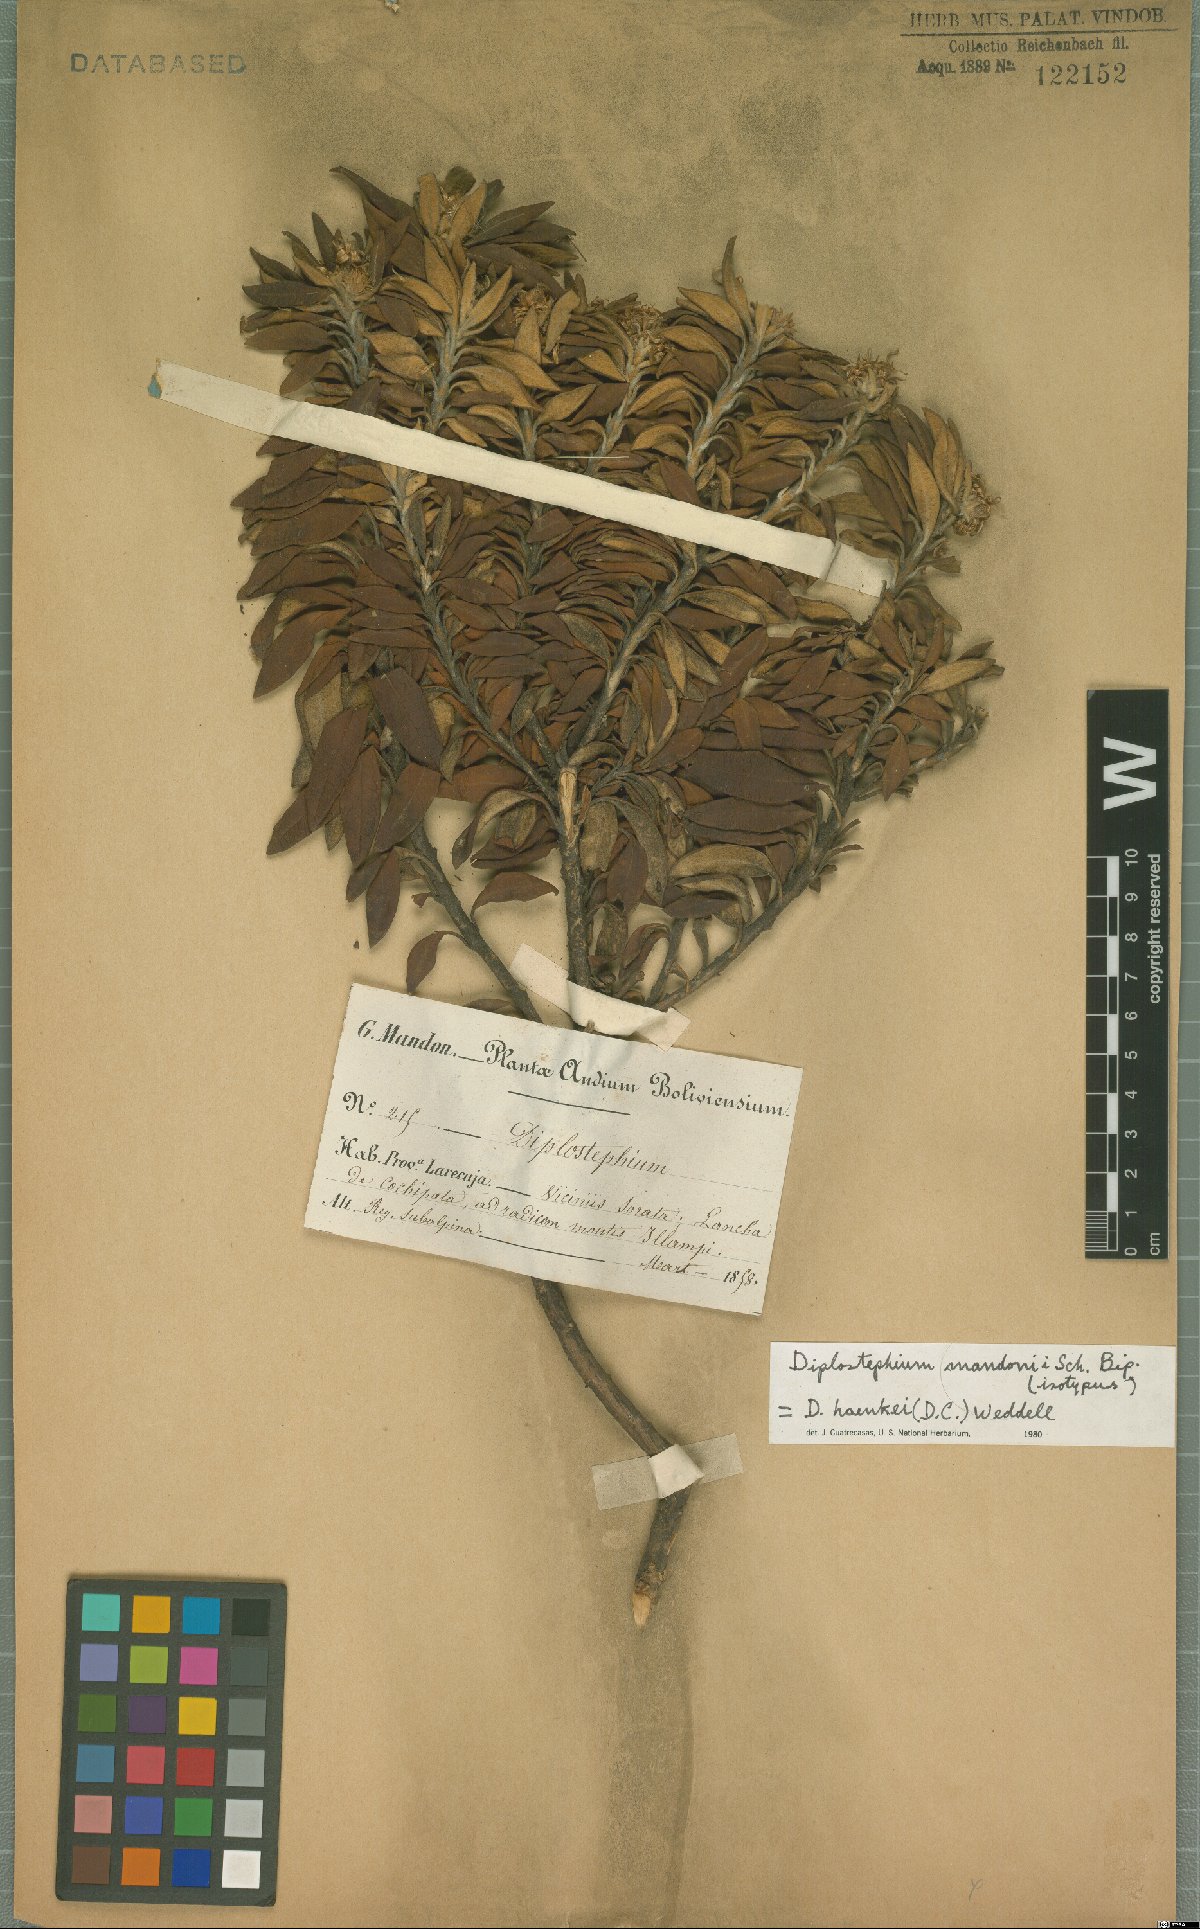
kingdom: Plantae
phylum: Tracheophyta
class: Magnoliopsida
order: Asterales
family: Asteraceae
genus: Diplostephium
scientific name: Diplostephium haenkei
